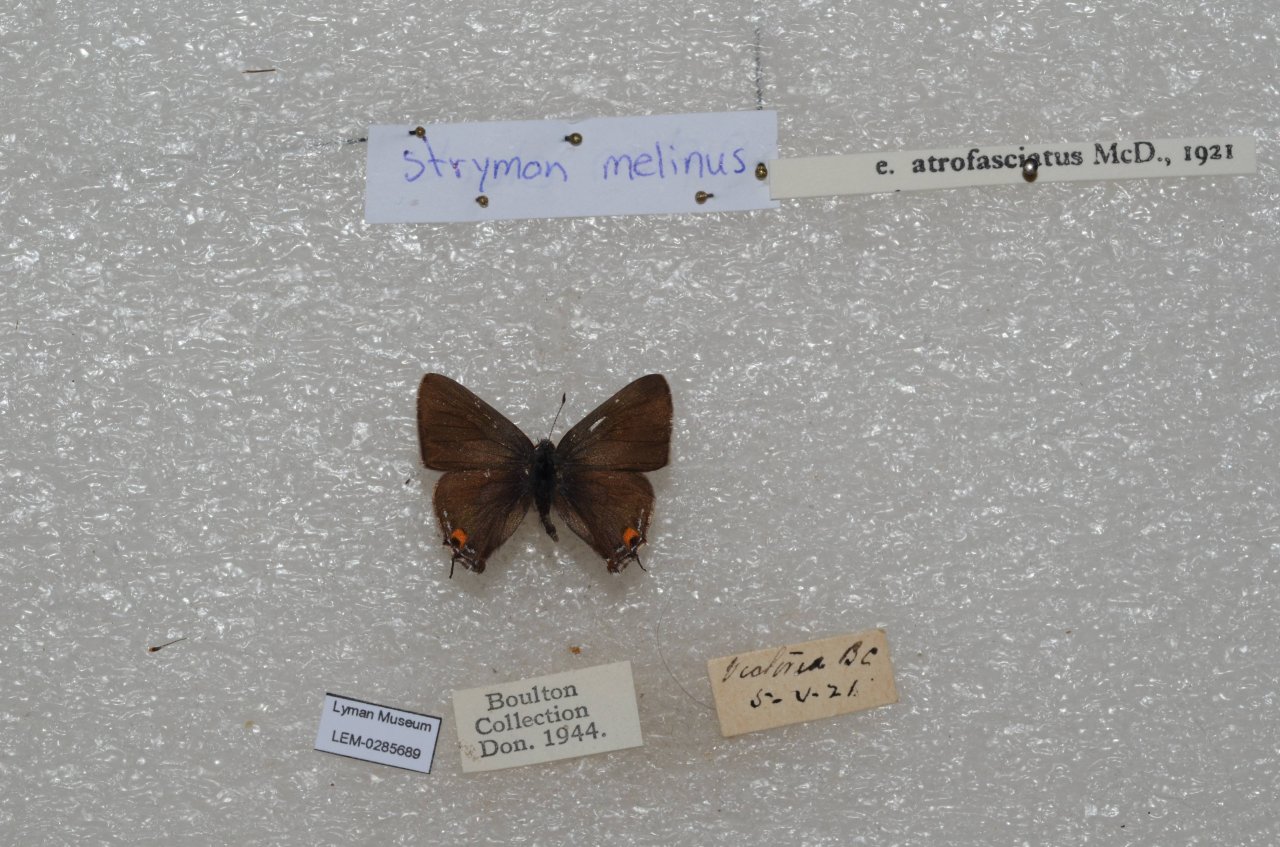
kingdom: Animalia
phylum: Arthropoda
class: Insecta
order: Lepidoptera
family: Lycaenidae
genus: Strymon
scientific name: Strymon melinus
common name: Gray Hairstreak
